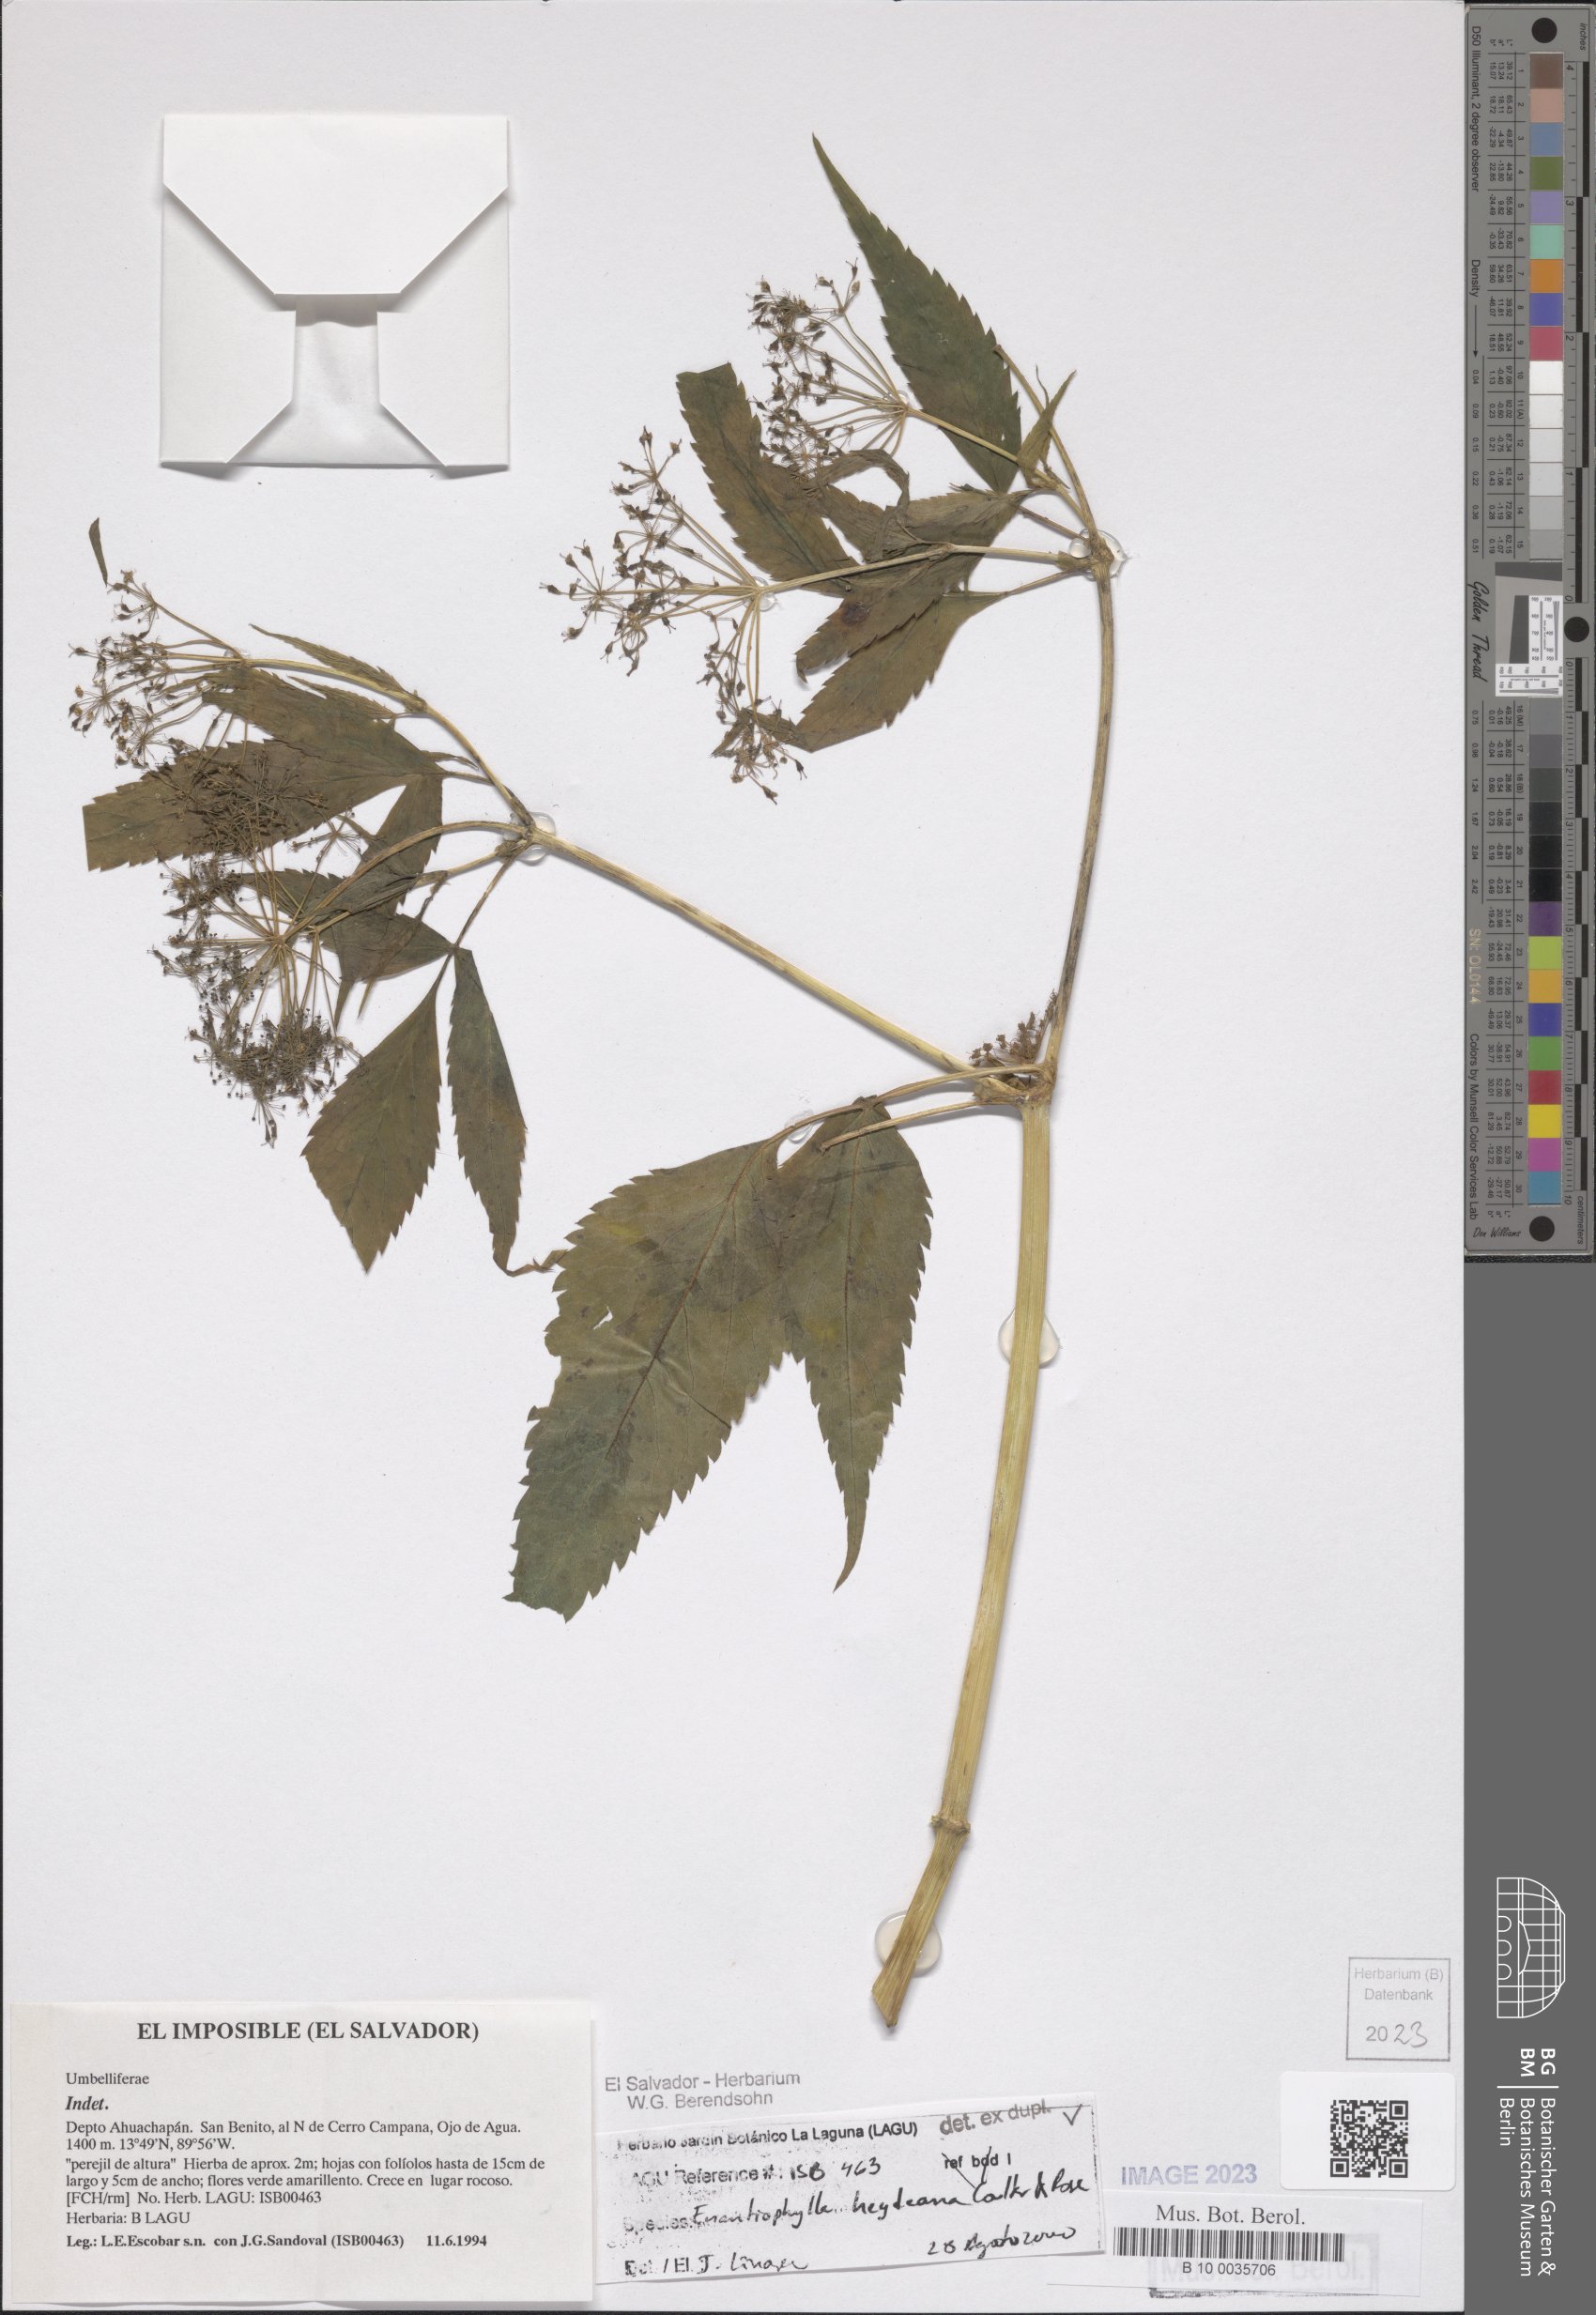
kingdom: Plantae
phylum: Tracheophyta
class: Magnoliopsida
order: Apiales
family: Apiaceae
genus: Enantiophylla
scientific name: Enantiophylla heydeana
